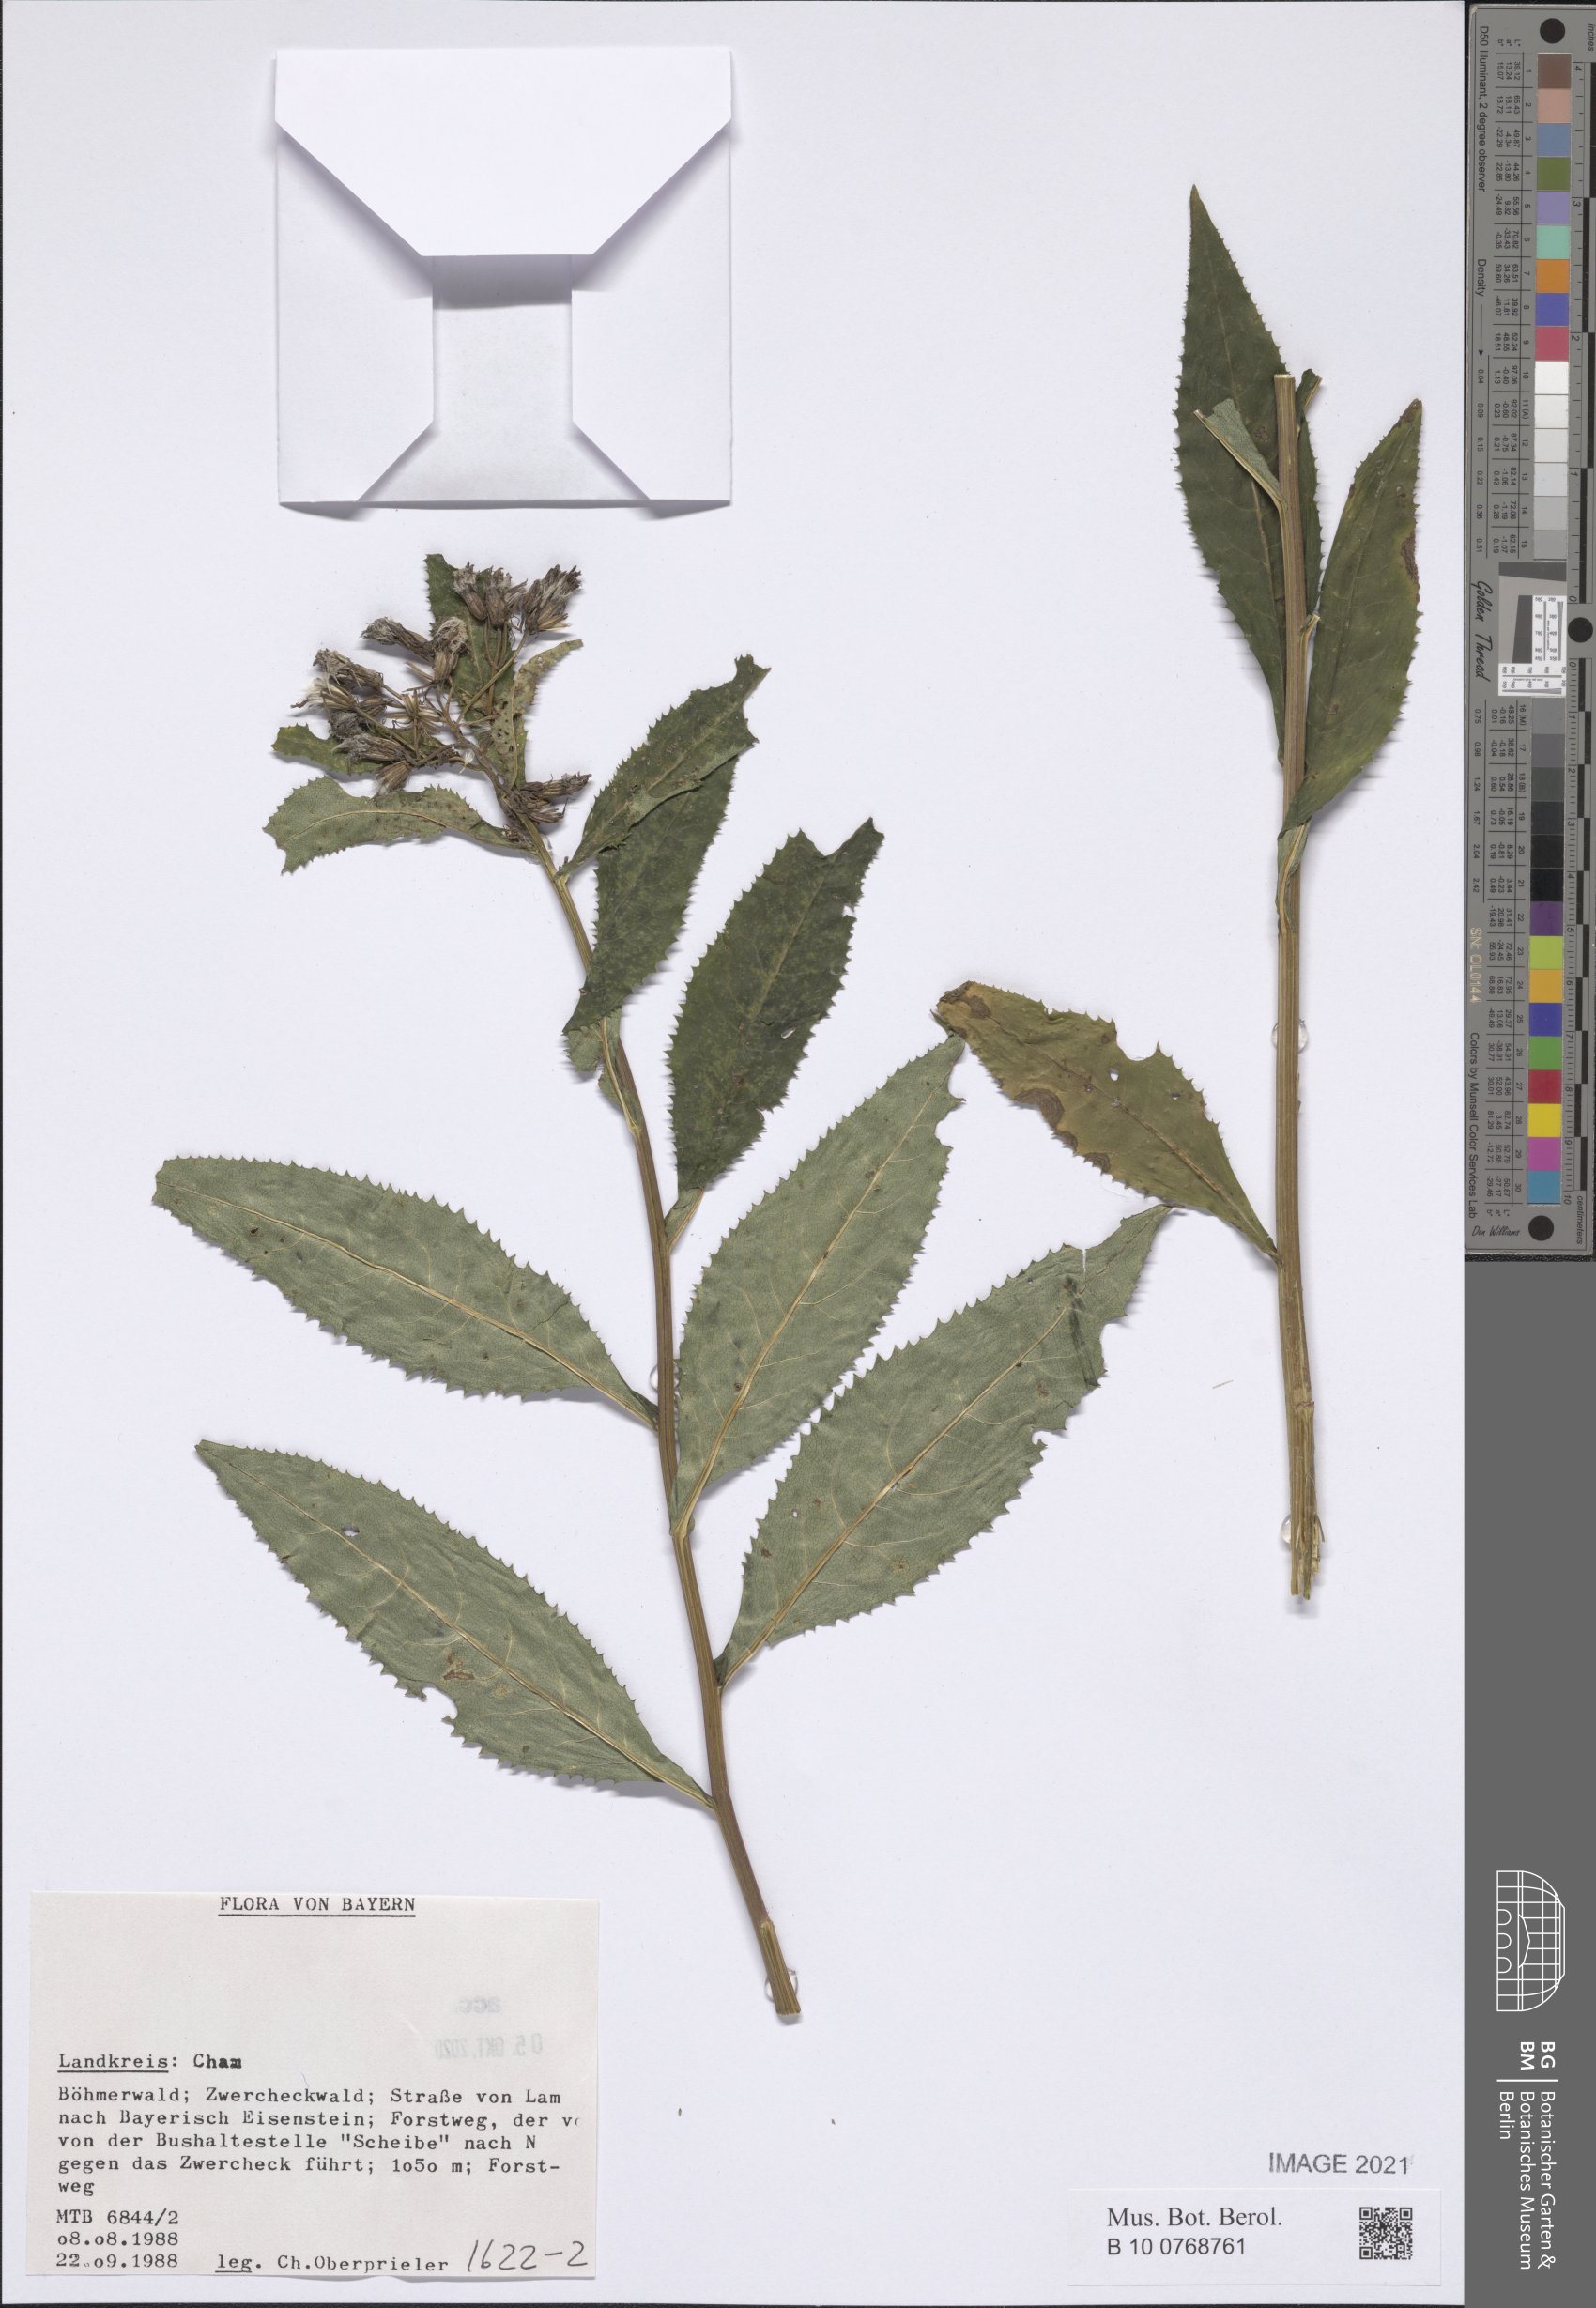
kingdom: Plantae
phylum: Tracheophyta
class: Magnoliopsida
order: Asterales
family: Asteraceae
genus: Senecio
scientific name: Senecio
